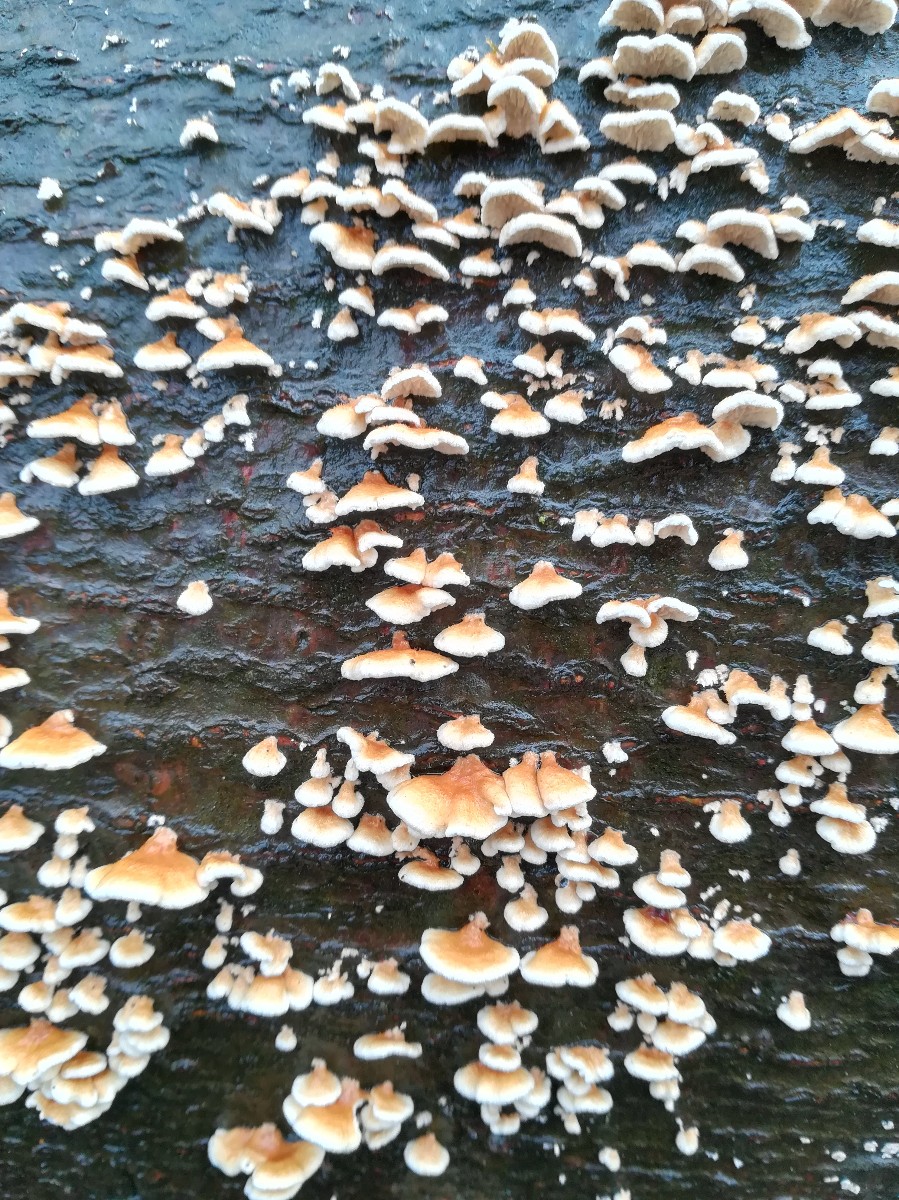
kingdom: Fungi
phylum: Basidiomycota
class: Agaricomycetes
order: Amylocorticiales
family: Amylocorticiaceae
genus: Plicaturopsis
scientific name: Plicaturopsis crispa
